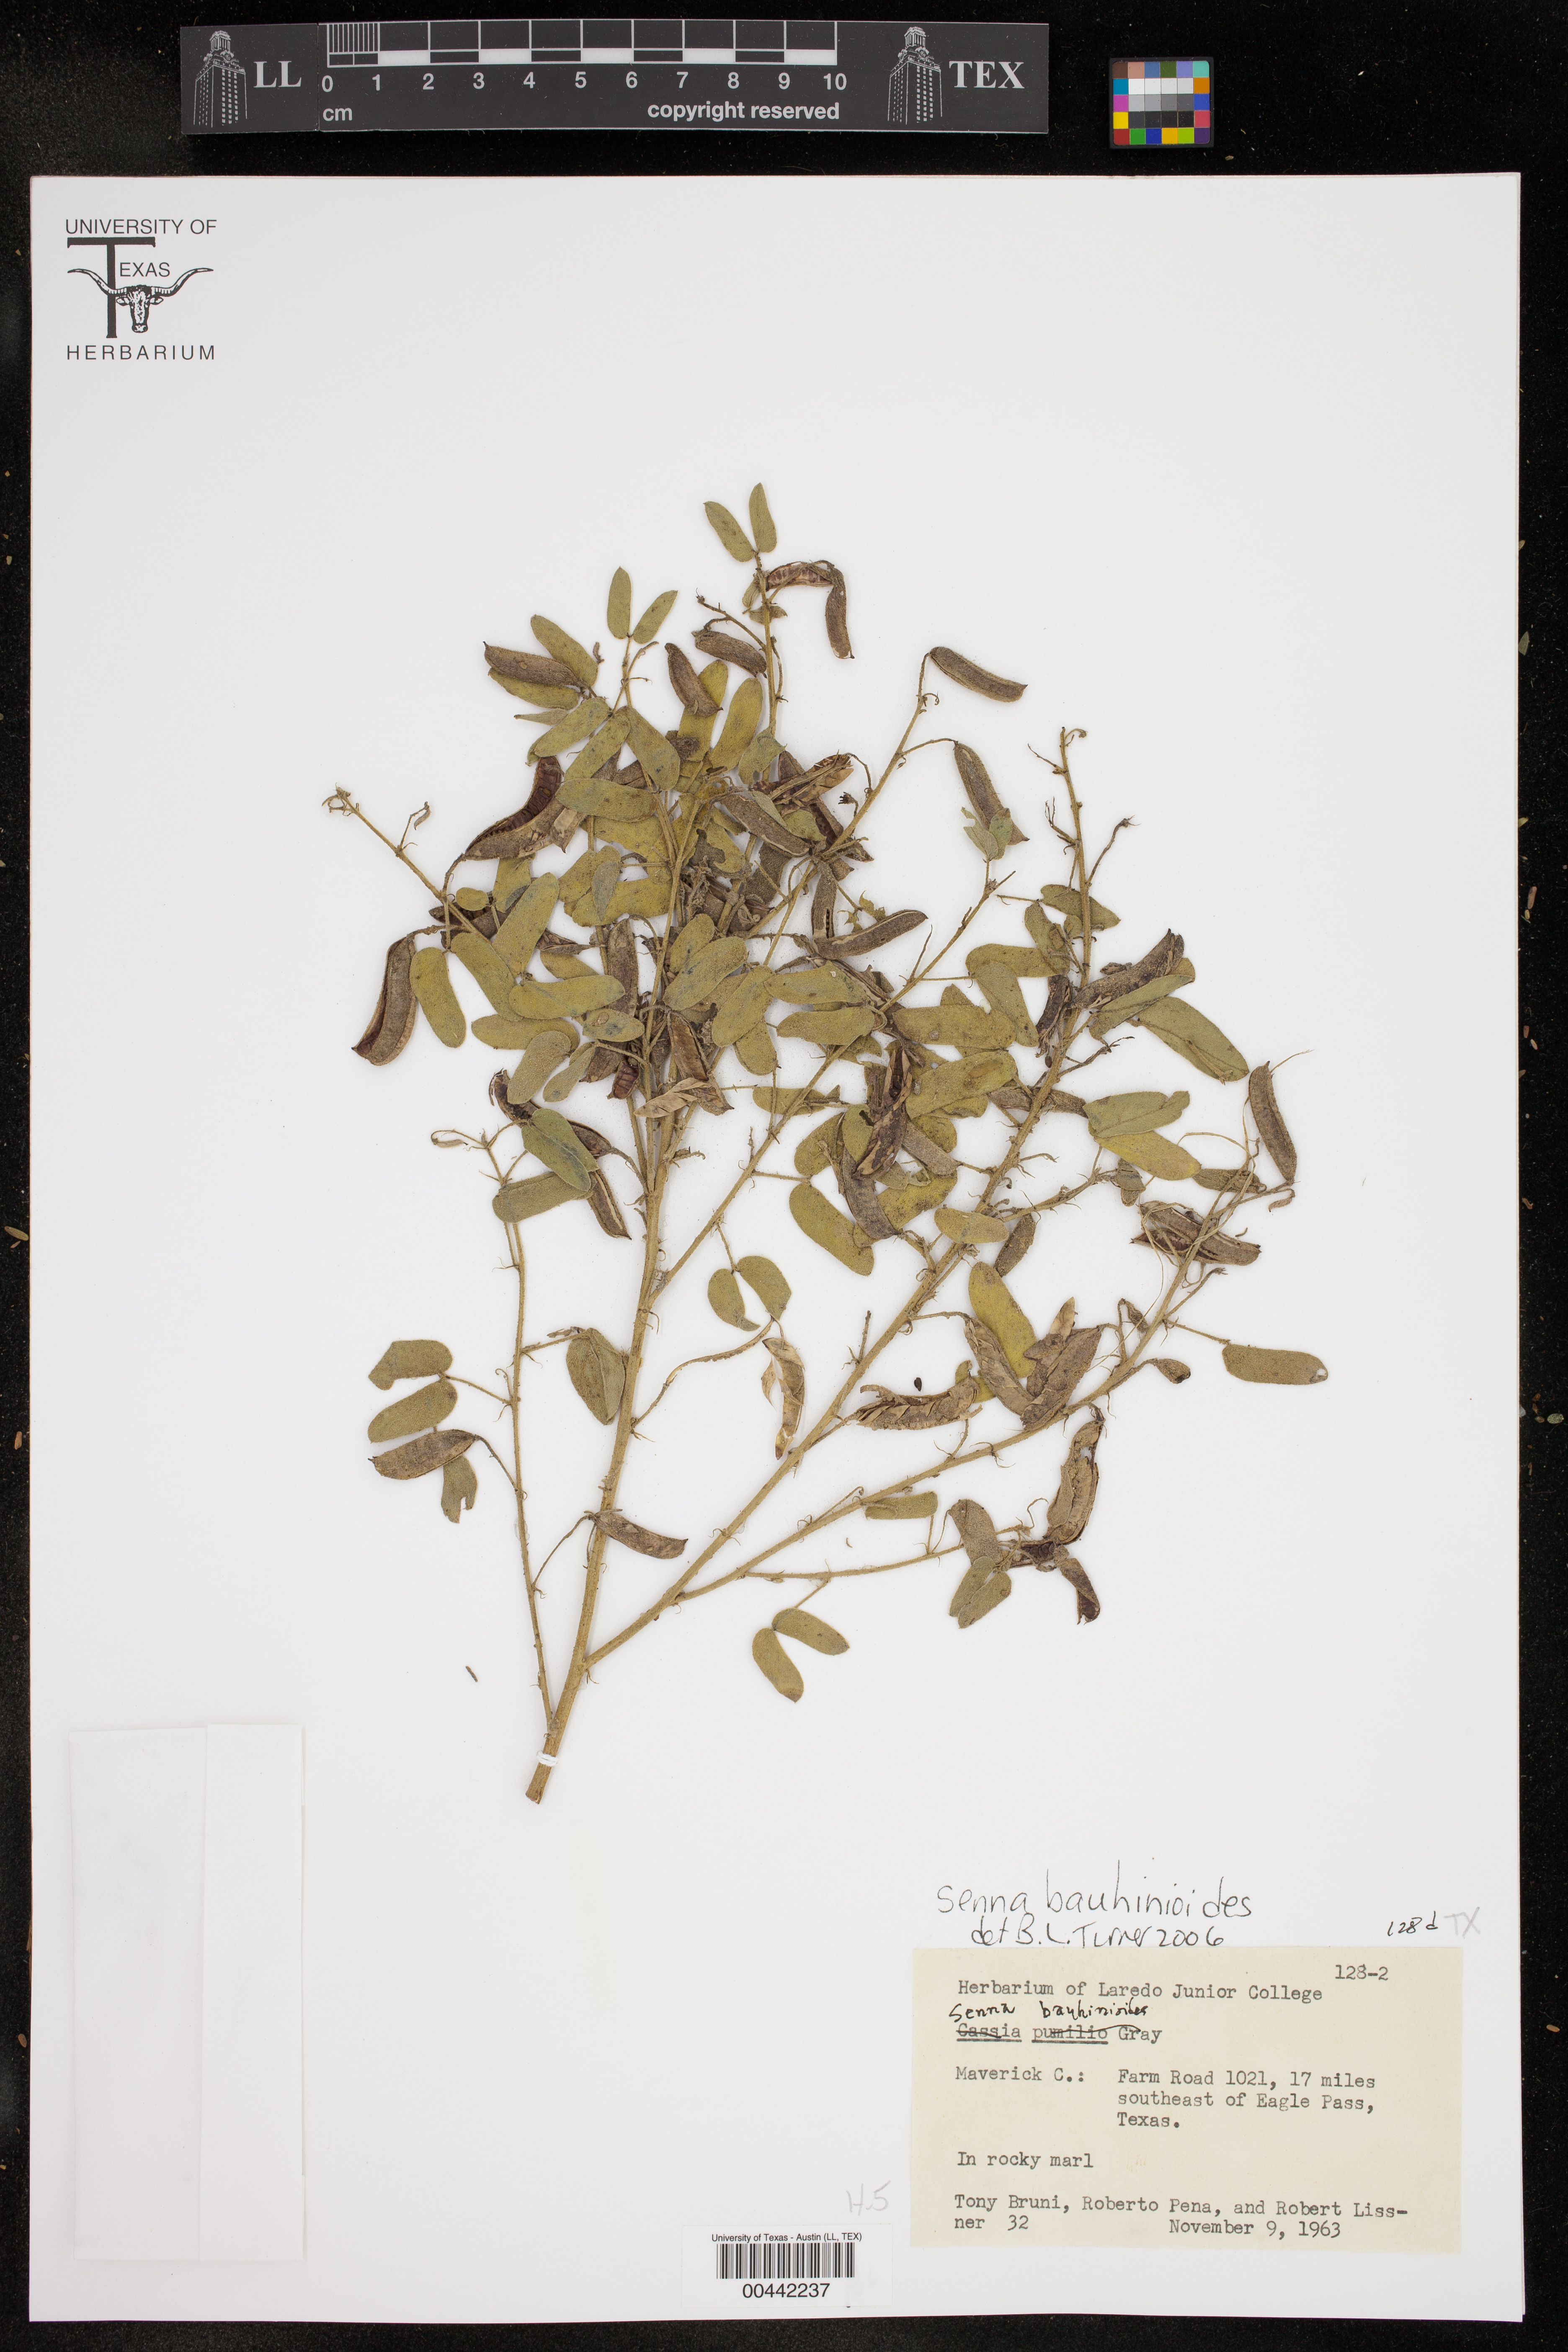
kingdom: Plantae
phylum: Tracheophyta
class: Magnoliopsida
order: Fabales
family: Fabaceae
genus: Senna
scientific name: Senna bauhinioides
